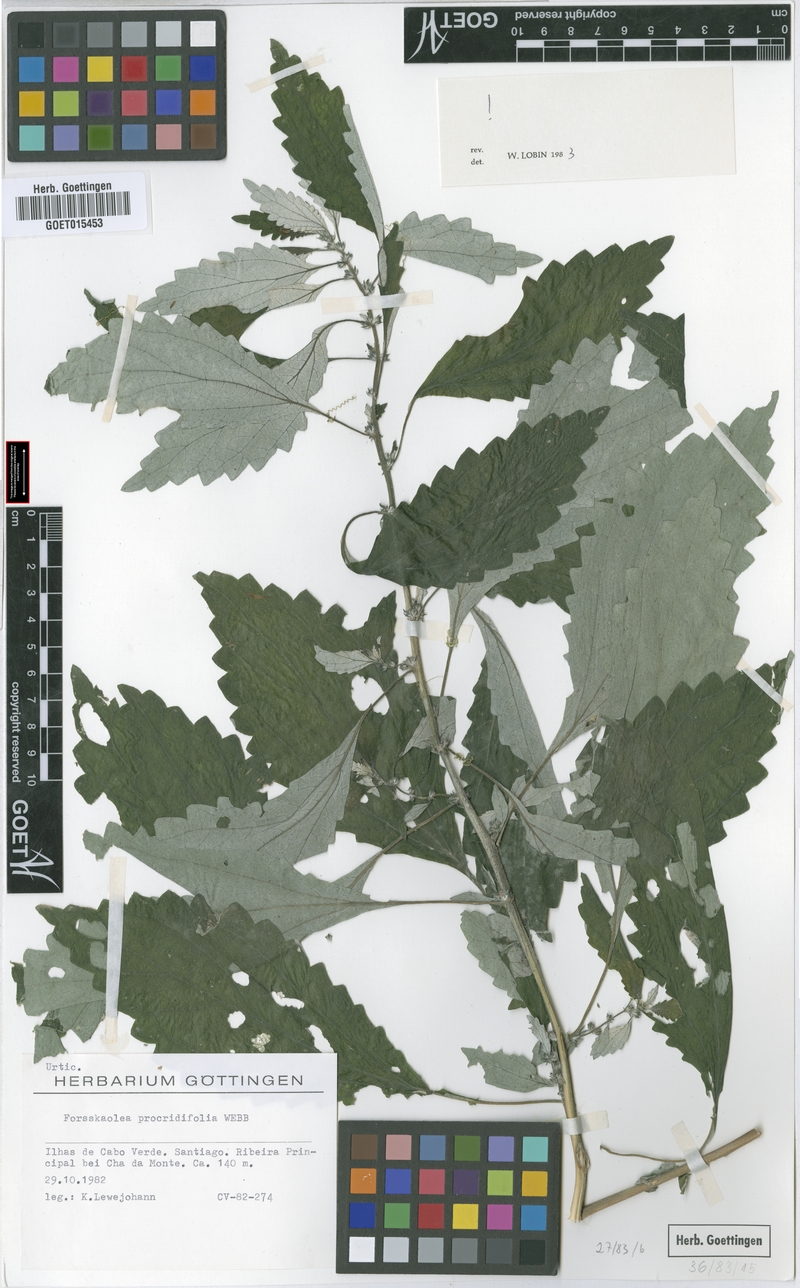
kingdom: Plantae
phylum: Tracheophyta
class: Magnoliopsida
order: Rosales
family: Urticaceae
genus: Forsskaolea
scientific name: Forsskaolea procridifolia
